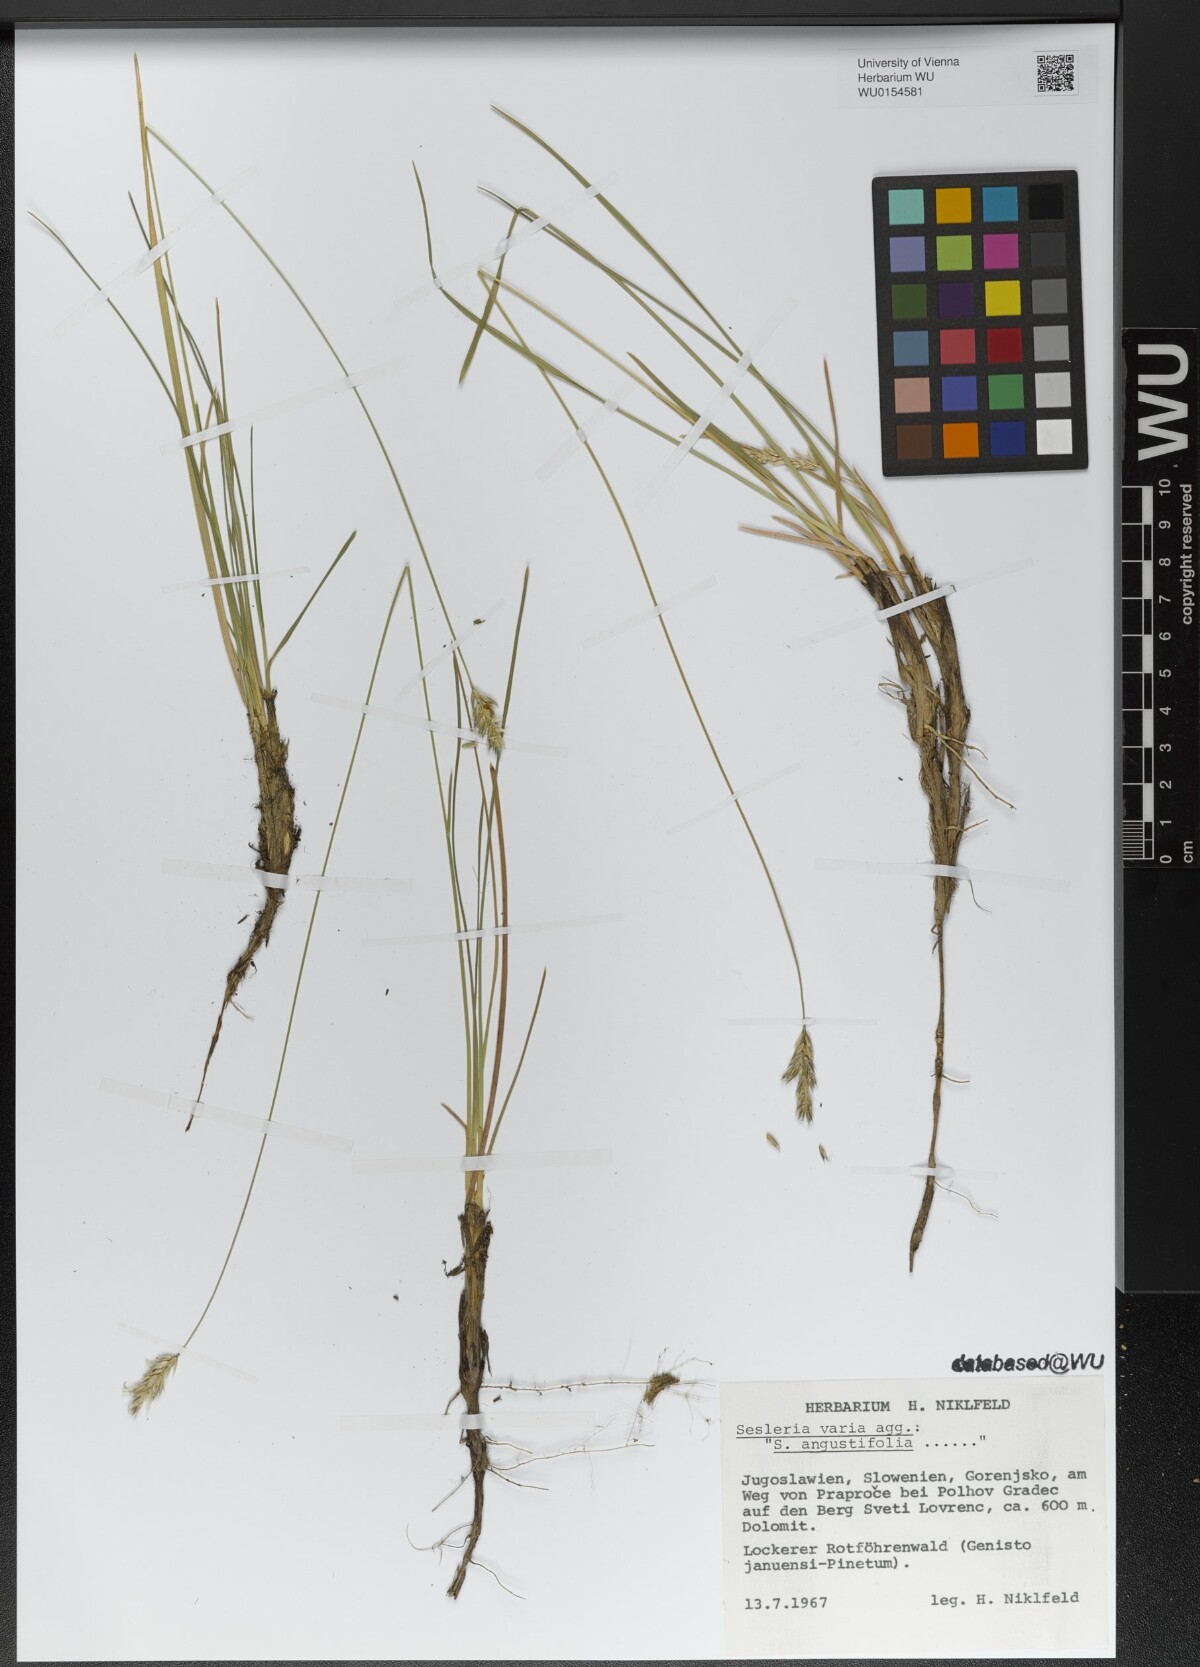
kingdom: Plantae
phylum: Tracheophyta
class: Liliopsida
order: Poales
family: Poaceae
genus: Sesleria
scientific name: Sesleria angustifolia
